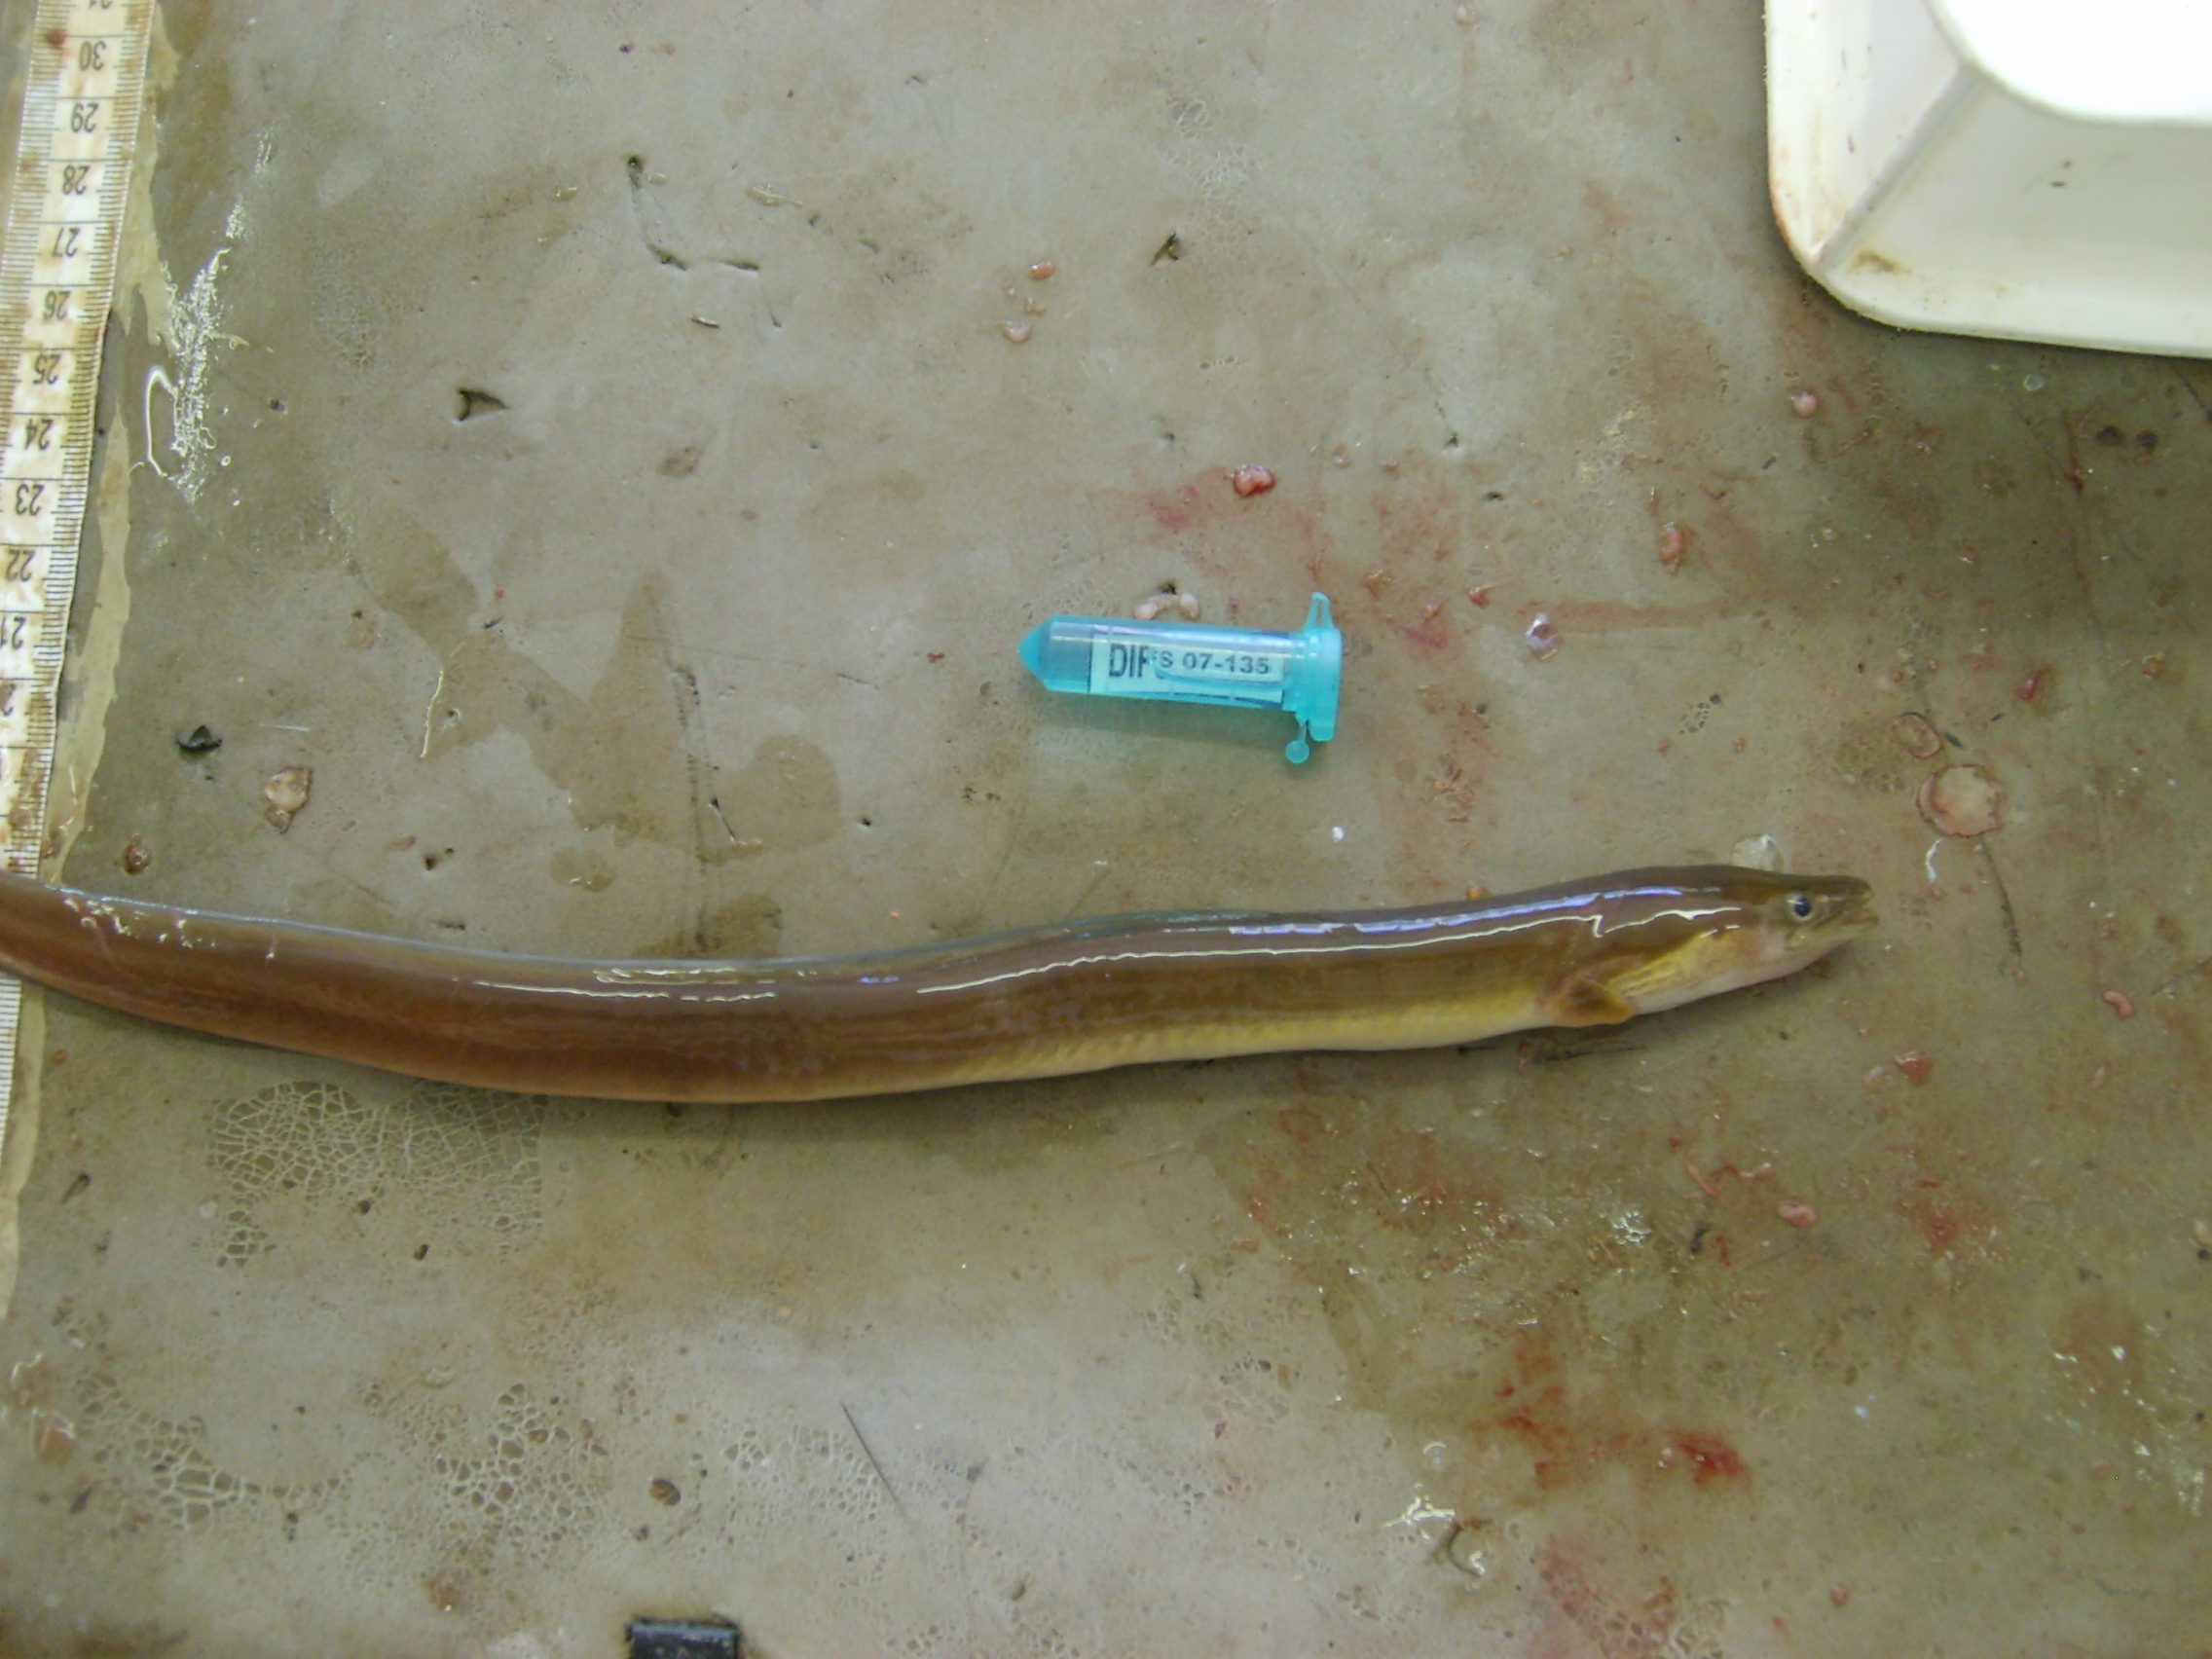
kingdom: Animalia
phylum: Chordata
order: Anguilliformes
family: Anguillidae
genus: Anguilla
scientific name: Anguilla mossambica
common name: African longfin eel
